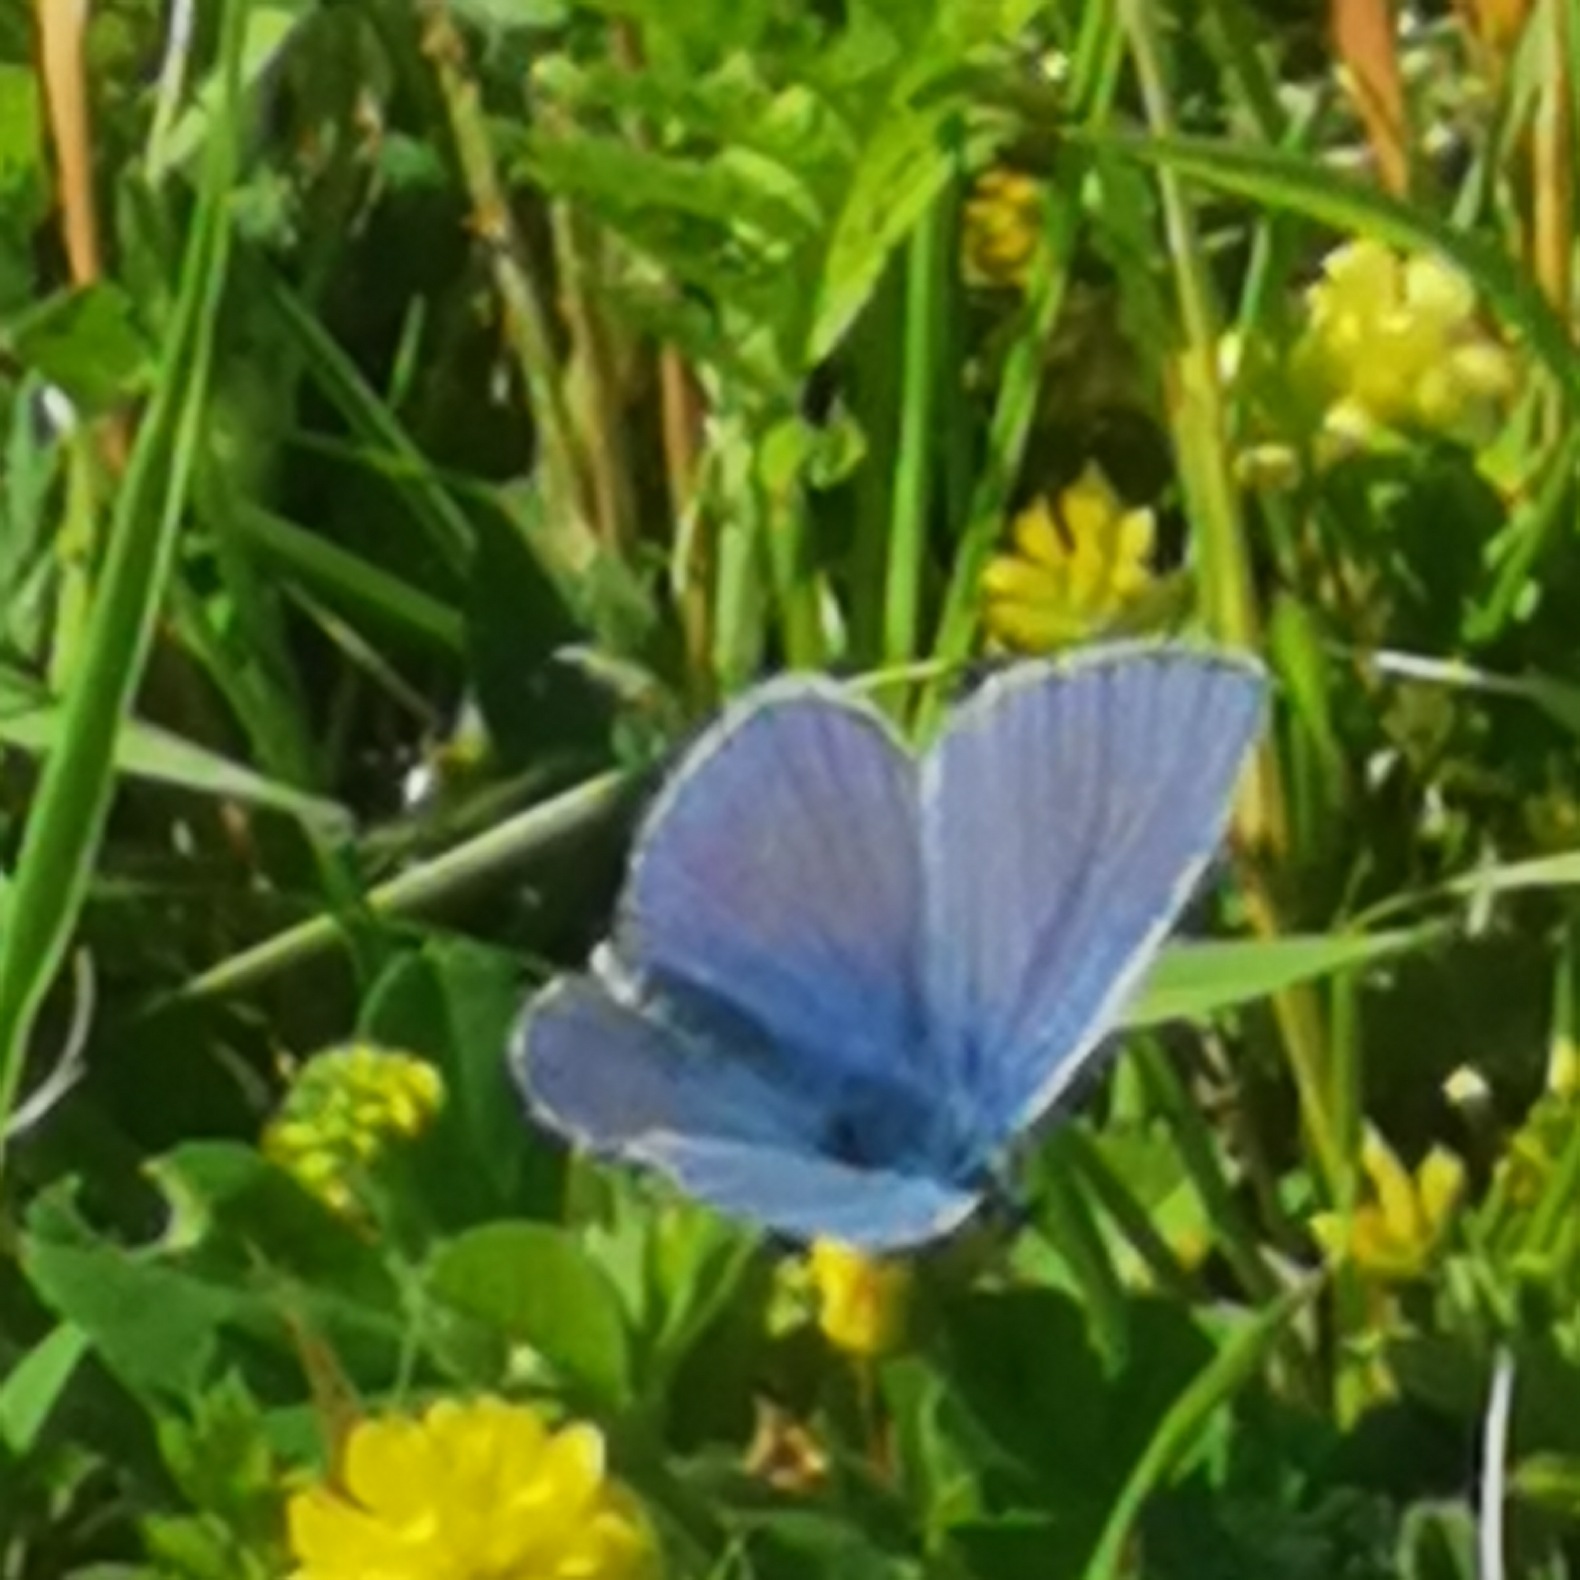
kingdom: Animalia
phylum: Arthropoda
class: Insecta
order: Lepidoptera
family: Lycaenidae
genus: Polyommatus
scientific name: Polyommatus icarus
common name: Almindelig blåfugl
